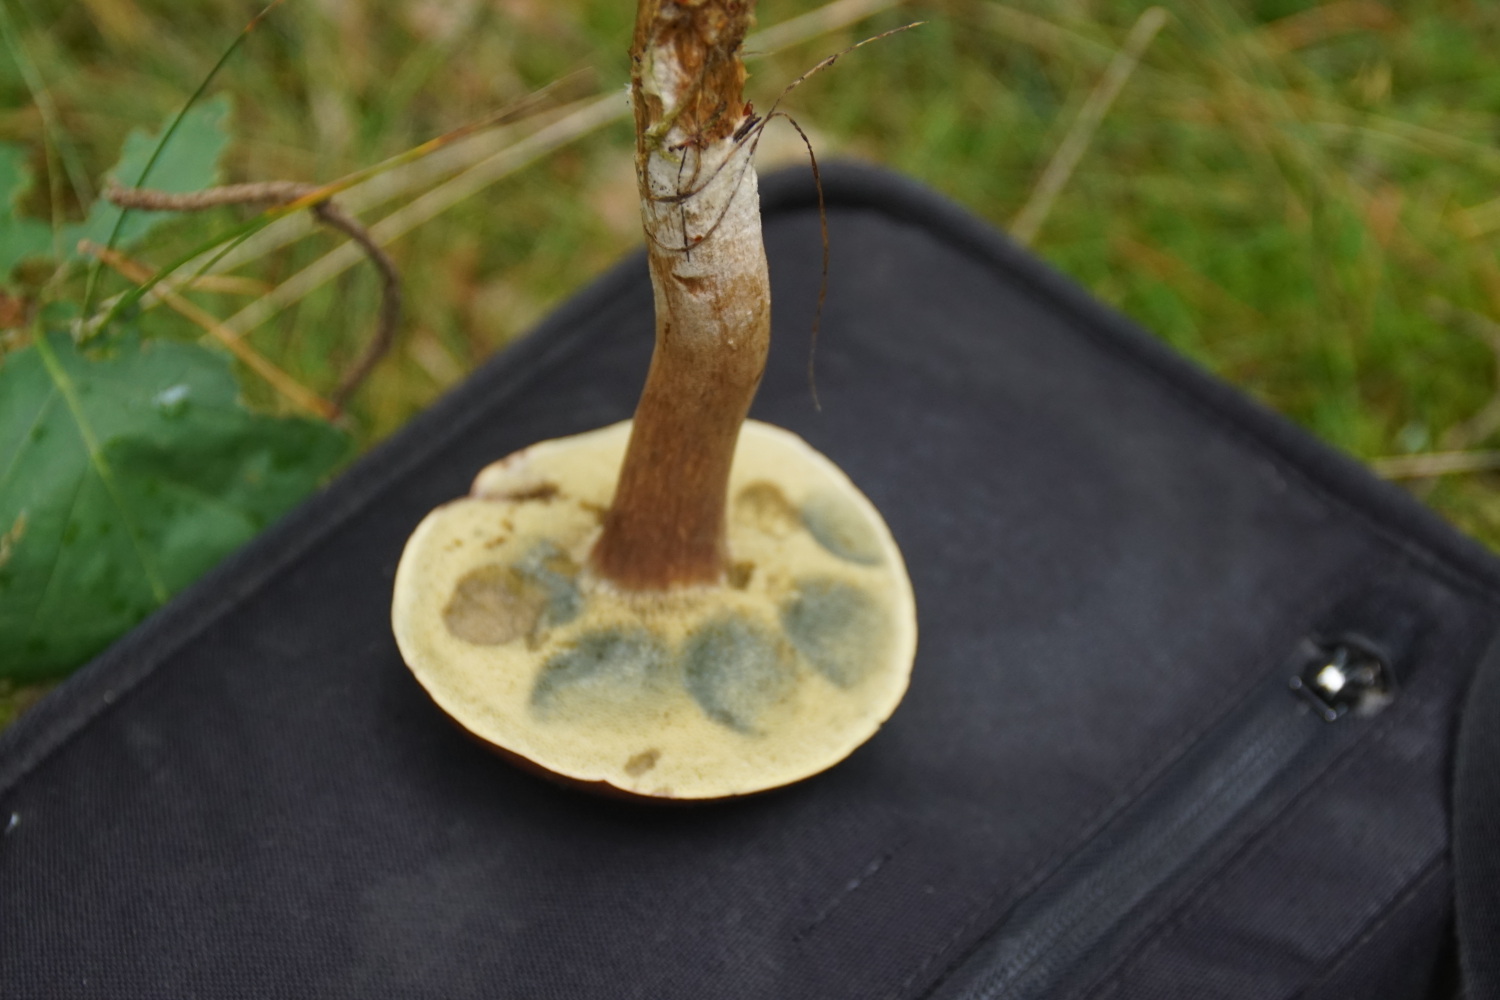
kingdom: Fungi
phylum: Basidiomycota
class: Agaricomycetes
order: Boletales
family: Boletaceae
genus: Imleria
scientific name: Imleria badia
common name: brunstokket rørhat
